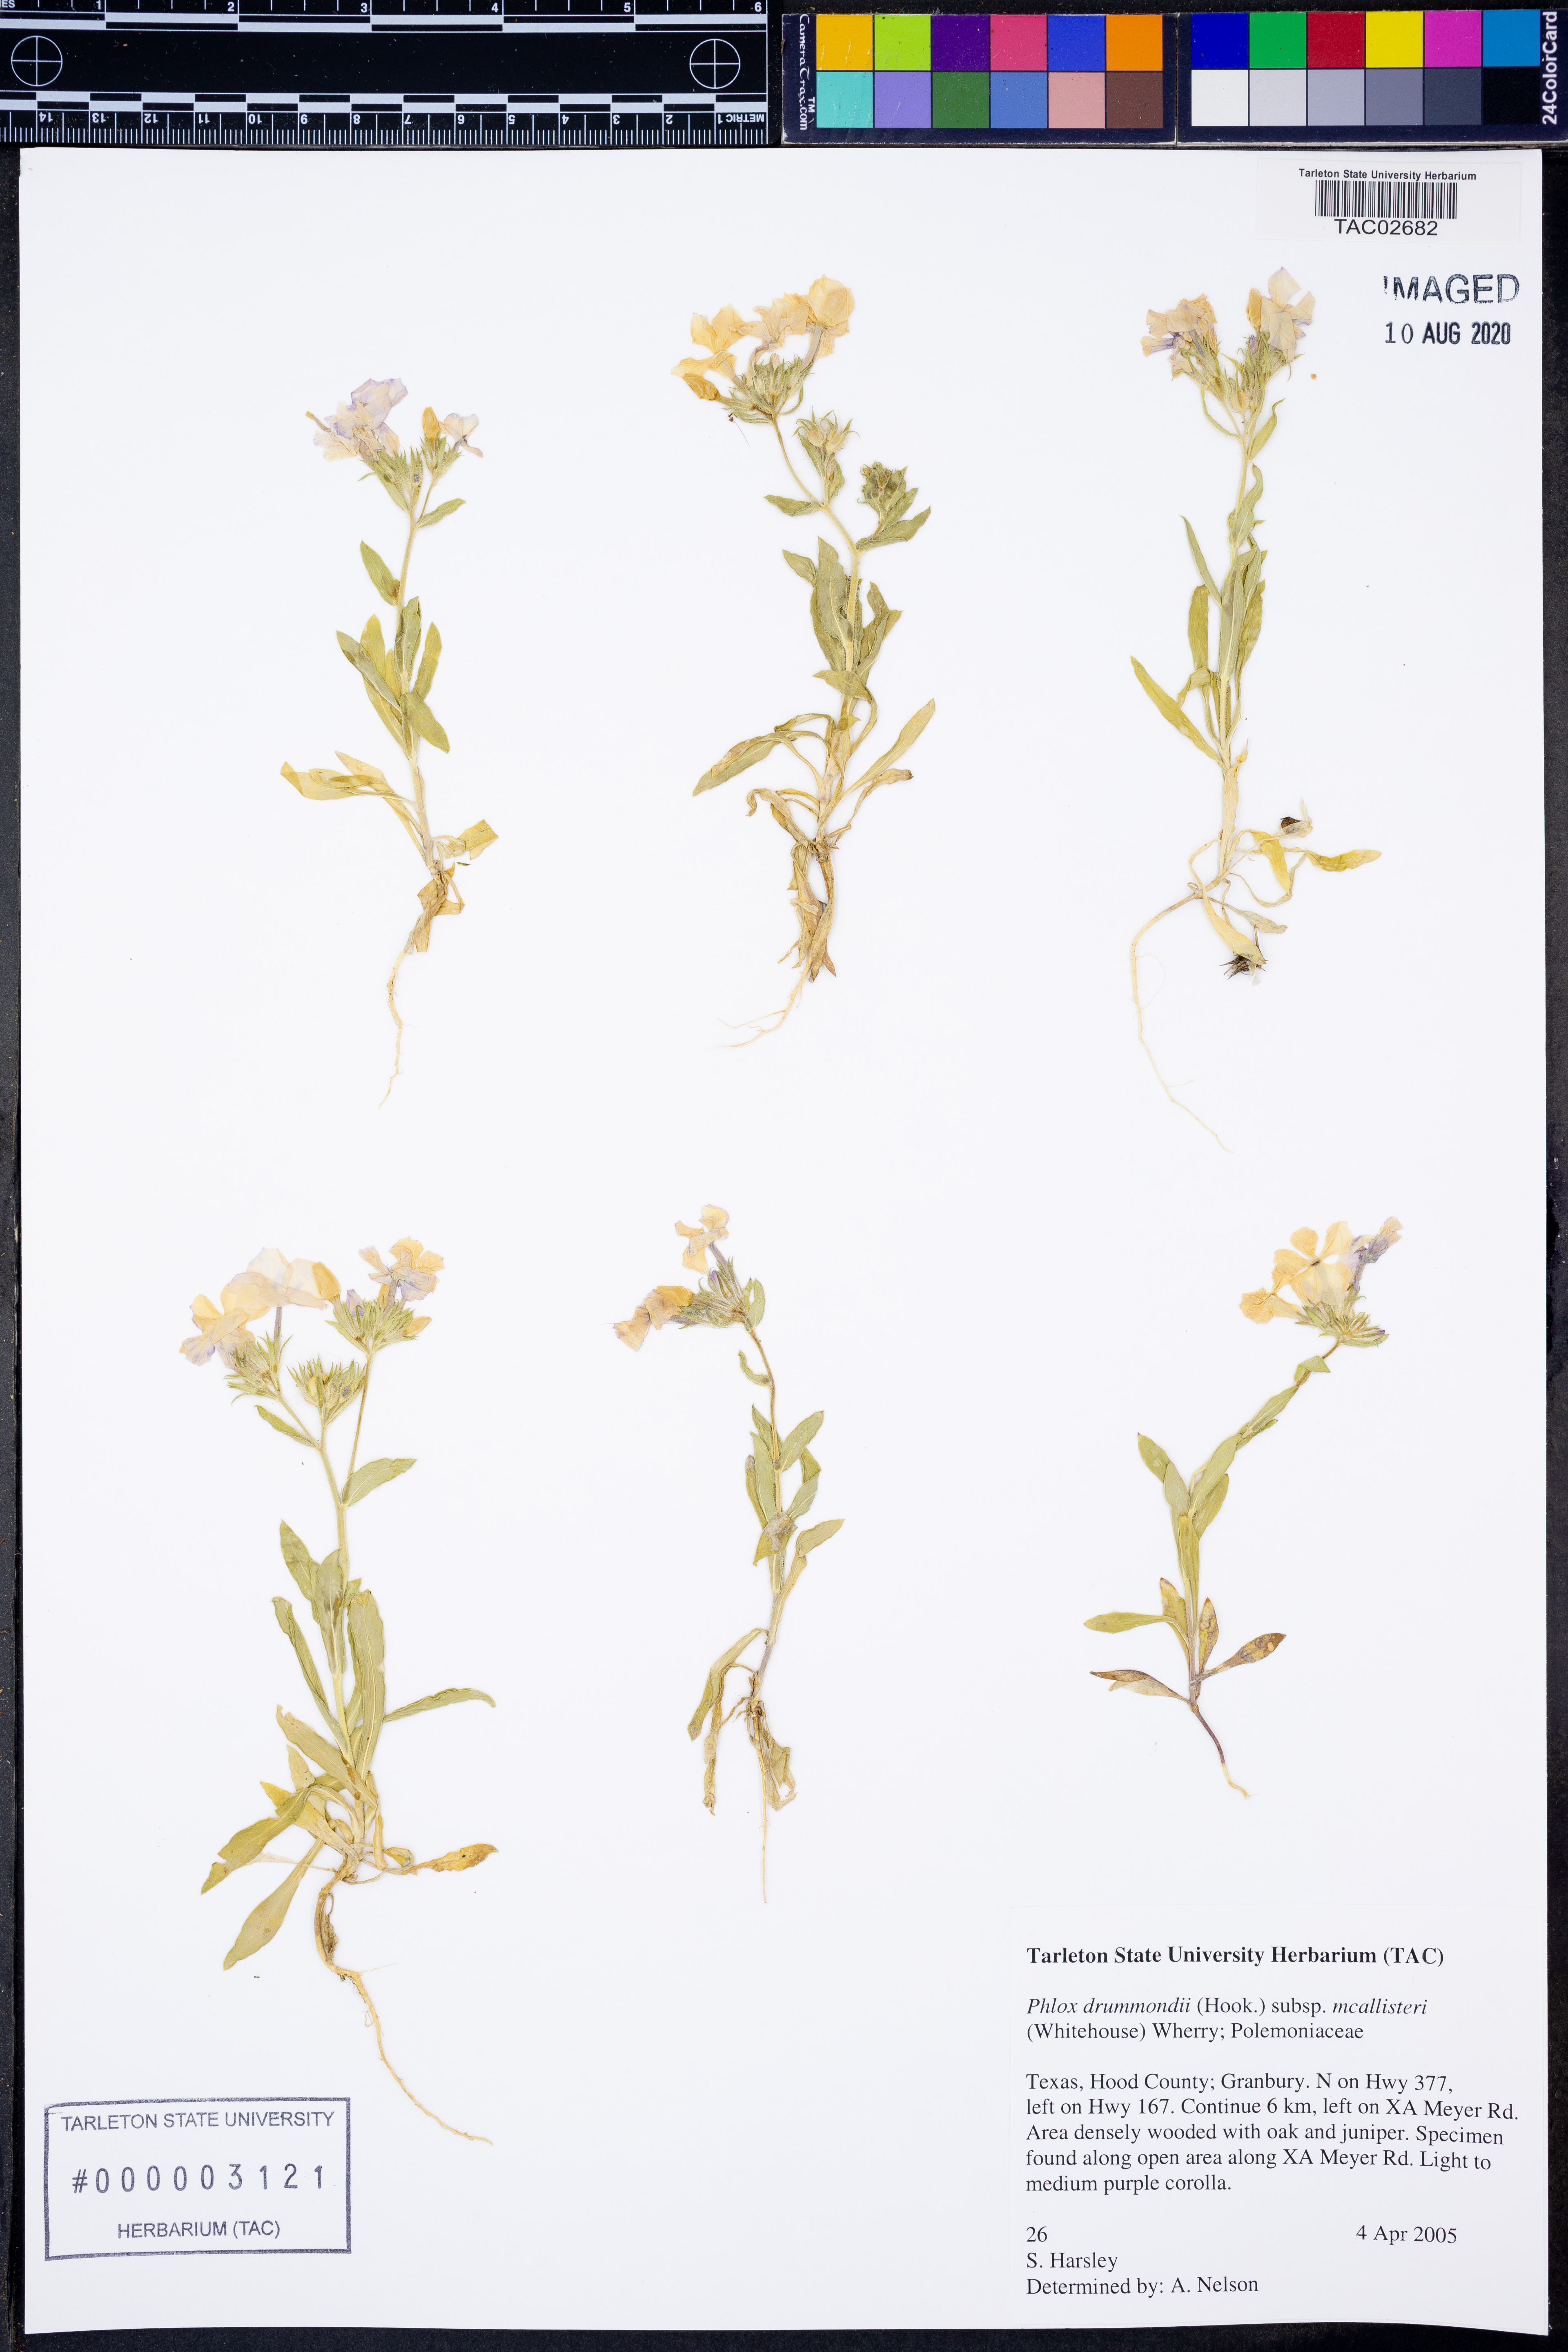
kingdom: Plantae
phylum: Tracheophyta
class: Magnoliopsida
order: Ericales
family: Polemoniaceae
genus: Phlox
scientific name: Phlox drummondii
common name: Drummond's phlox
